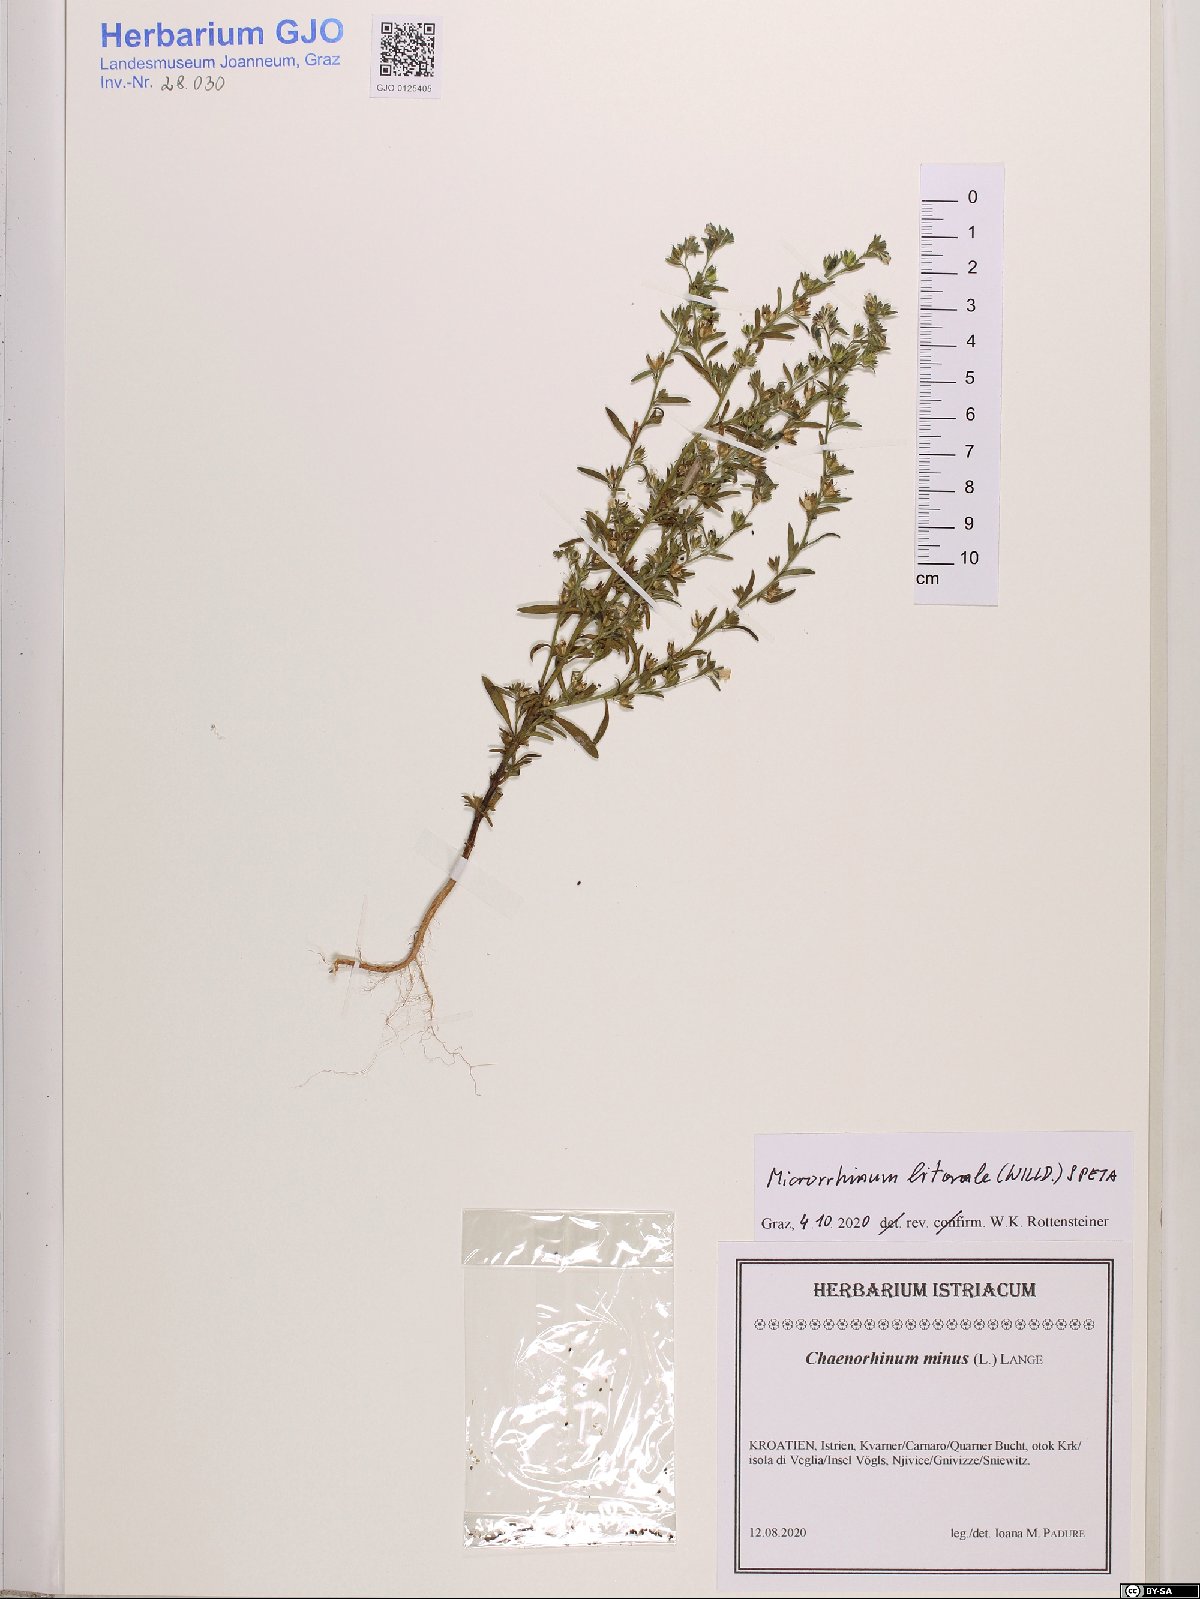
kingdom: Plantae
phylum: Tracheophyta
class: Magnoliopsida
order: Lamiales
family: Plantaginaceae
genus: Chaenorhinum
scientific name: Chaenorhinum litorale
